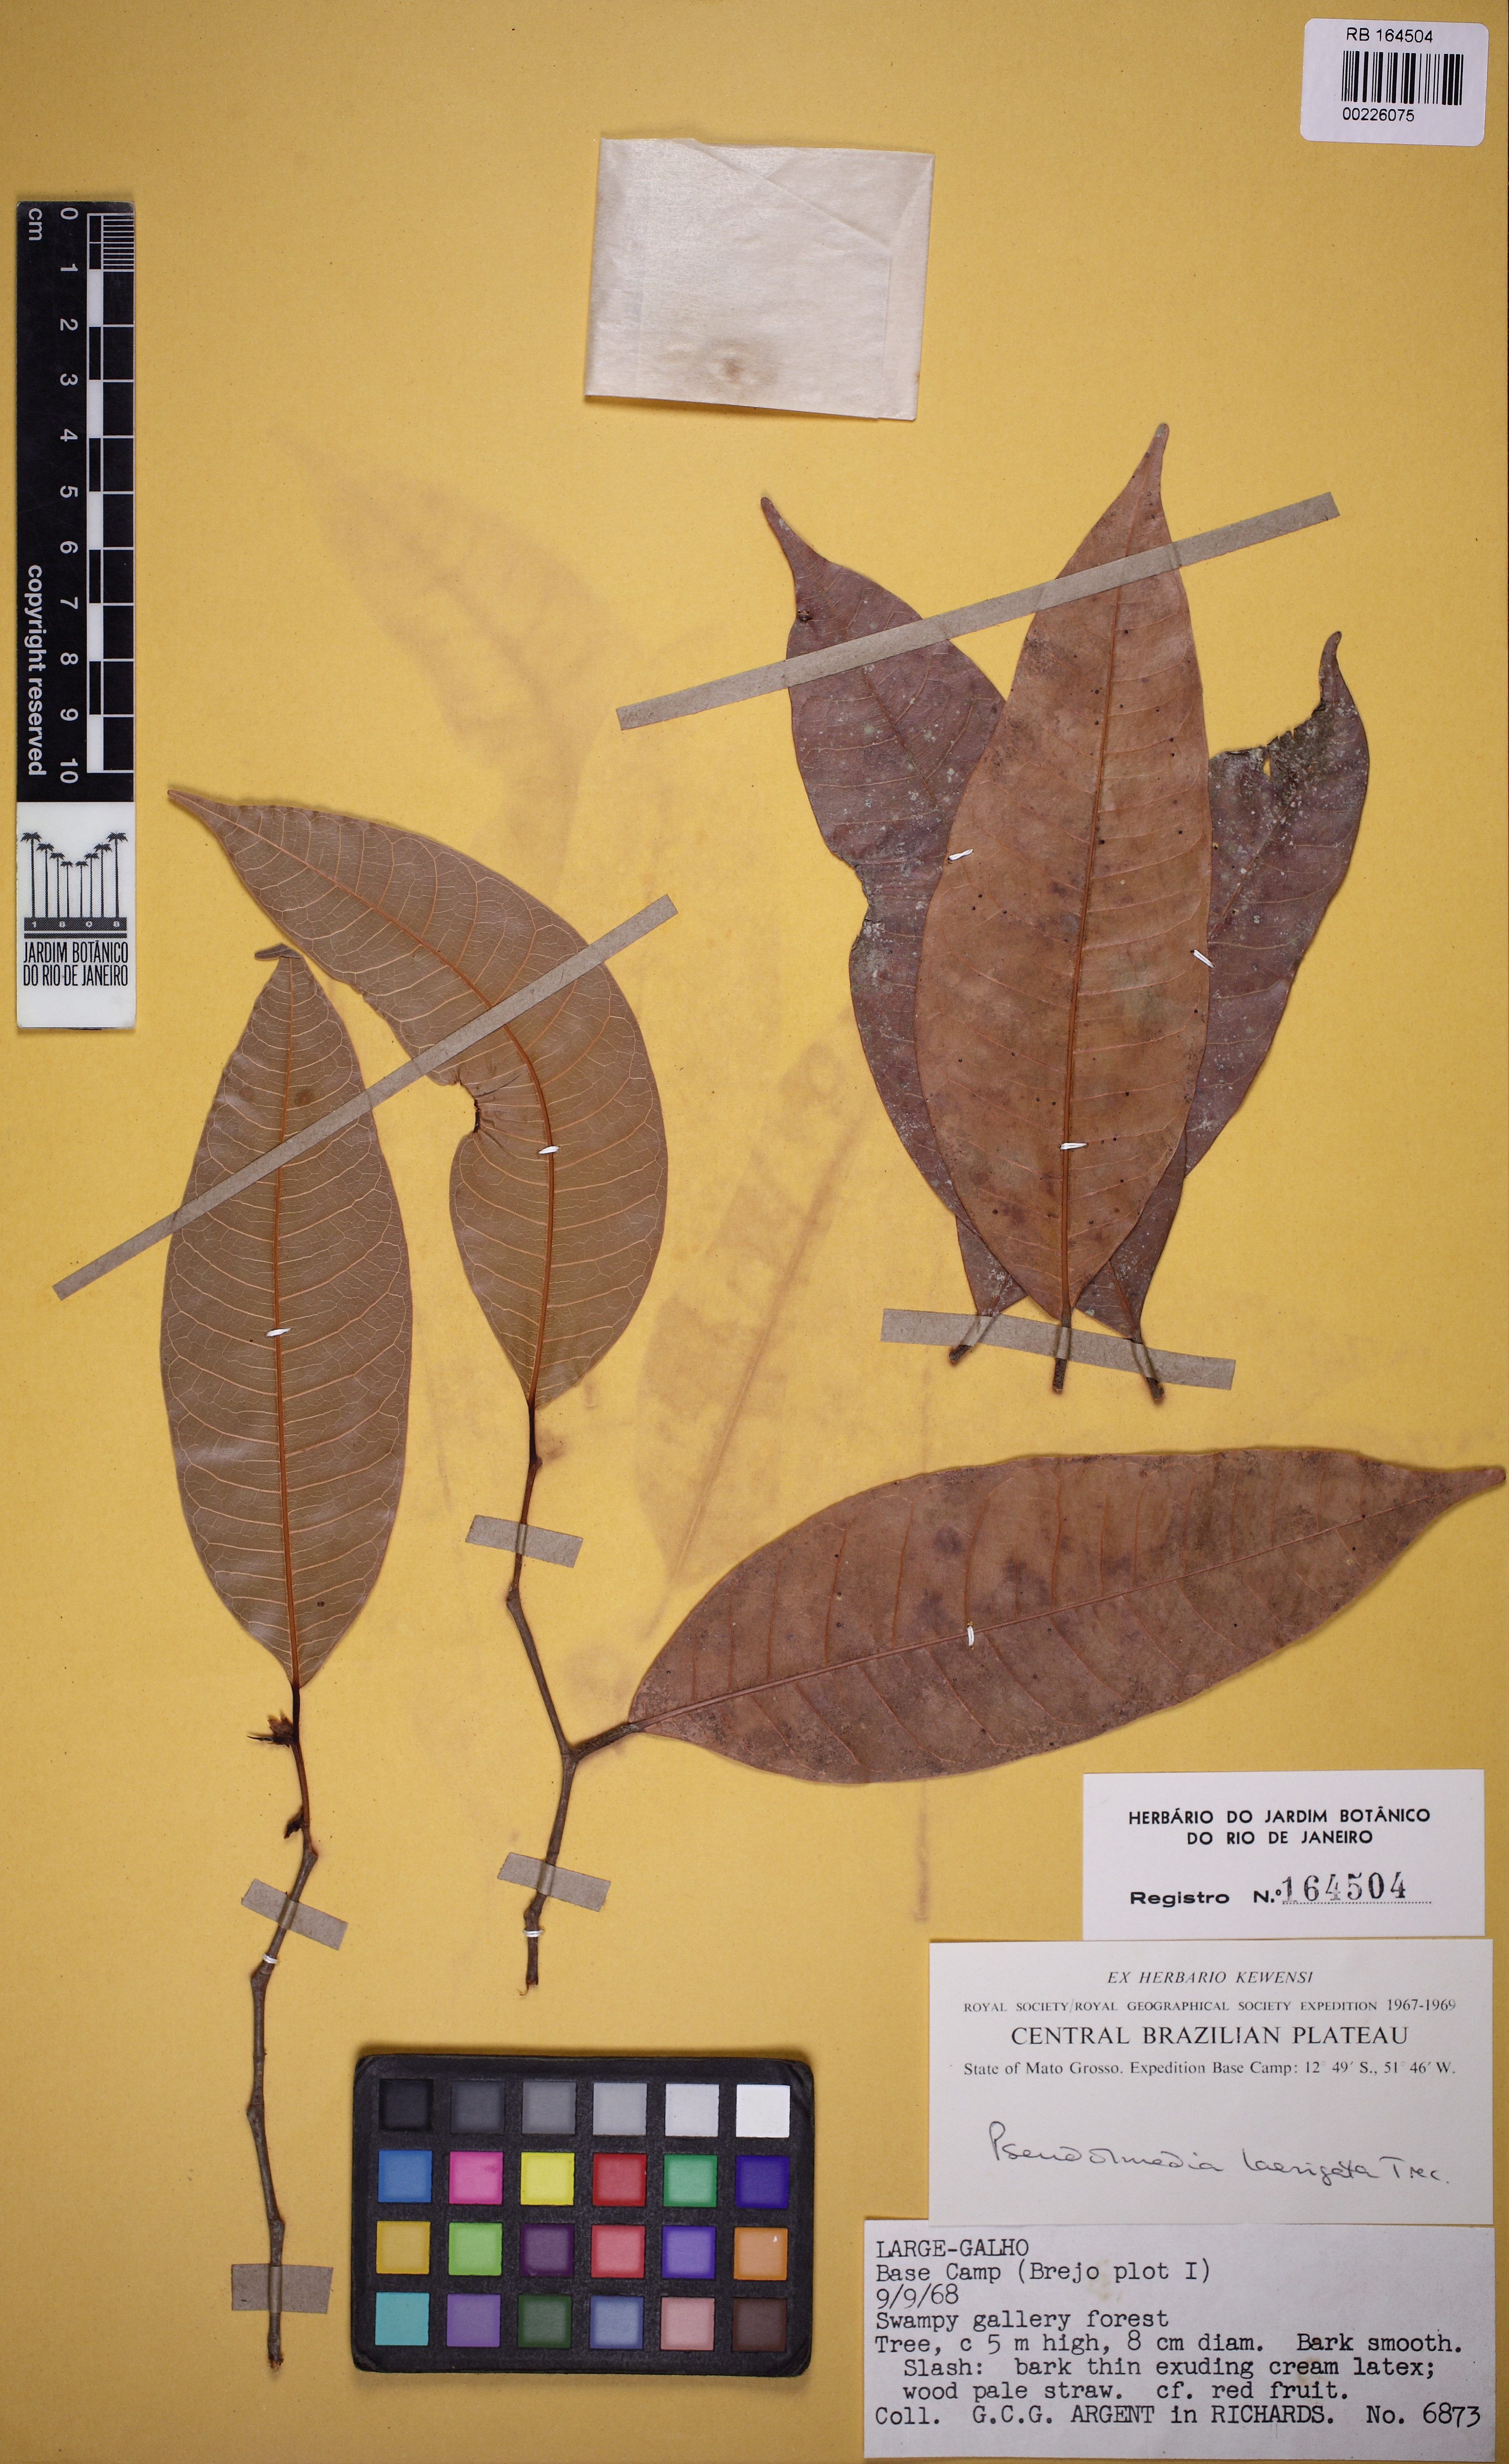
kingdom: Plantae
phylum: Tracheophyta
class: Magnoliopsida
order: Rosales
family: Moraceae
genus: Pseudolmedia
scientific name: Pseudolmedia laevigata
